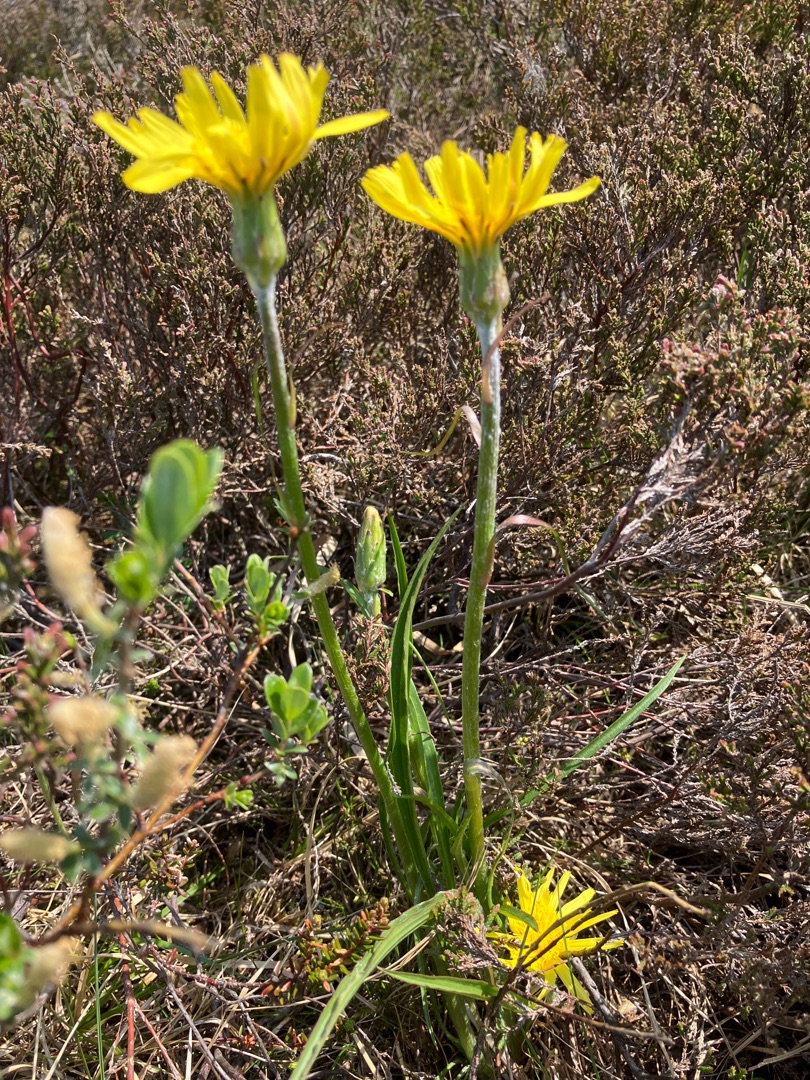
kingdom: Plantae
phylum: Tracheophyta
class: Magnoliopsida
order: Asterales
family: Asteraceae
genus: Scorzonera
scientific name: Scorzonera humilis
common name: Lav skorsoner
